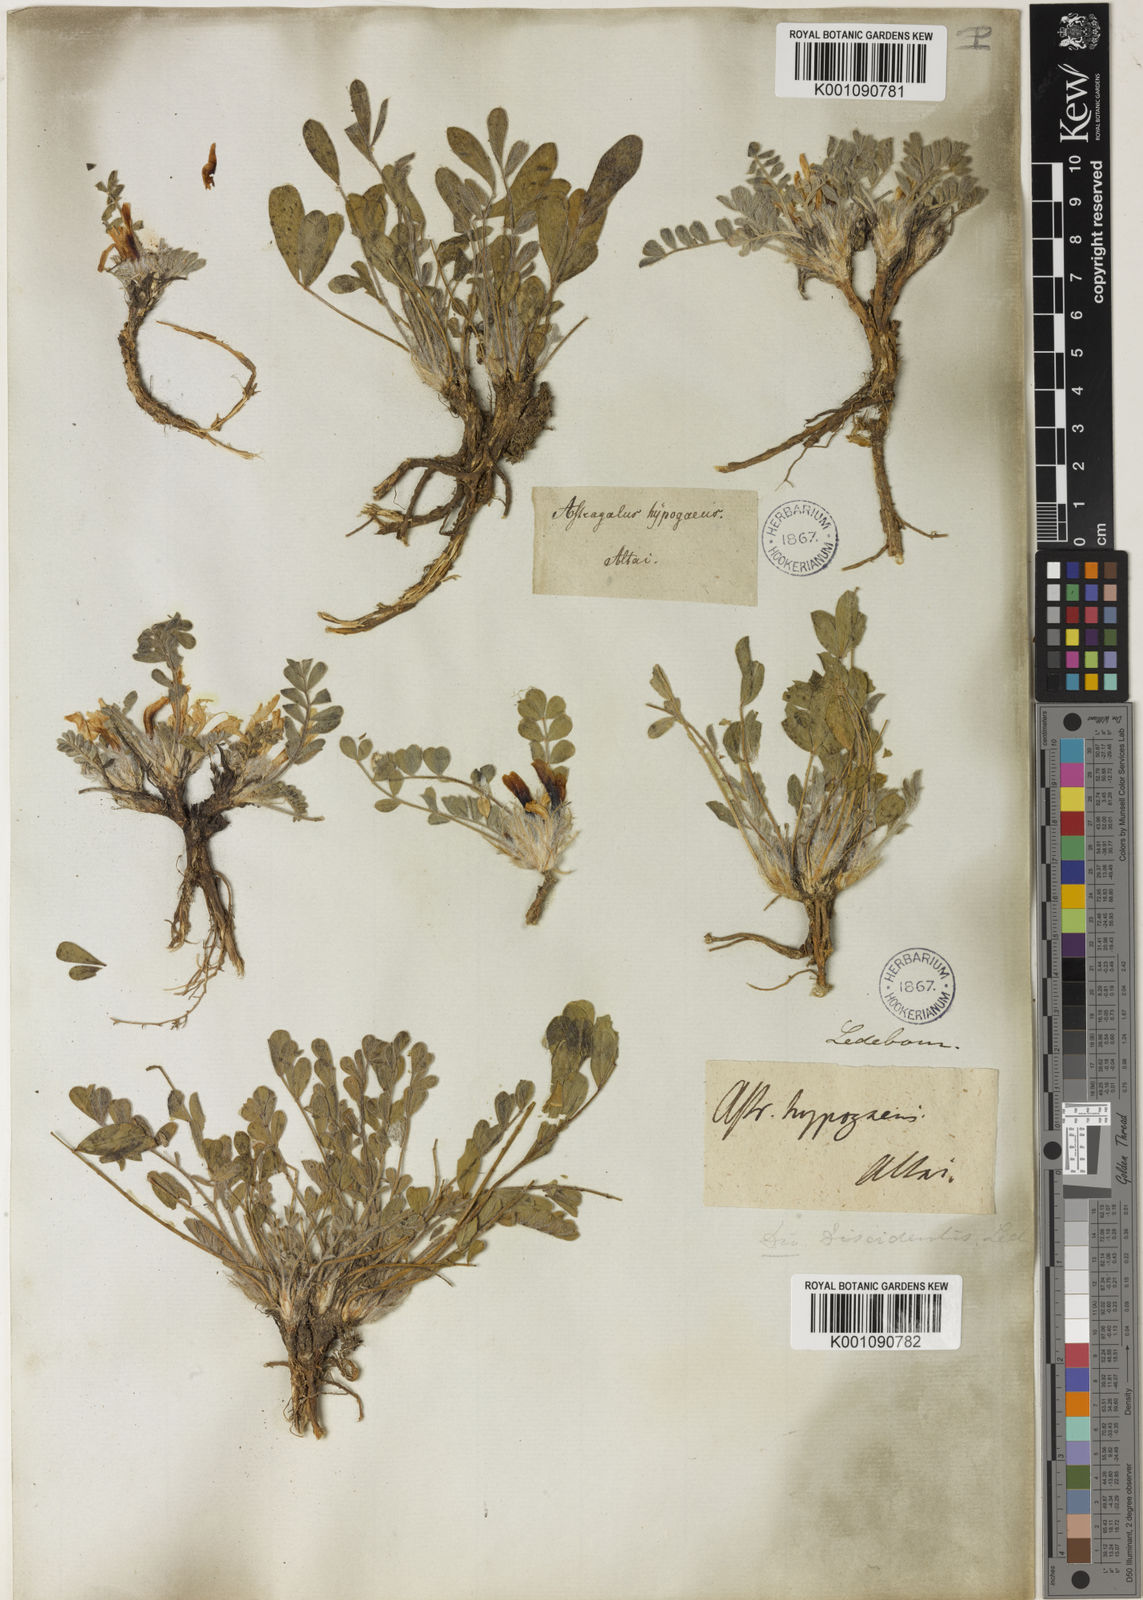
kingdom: Plantae
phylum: Tracheophyta
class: Magnoliopsida
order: Fabales
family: Fabaceae
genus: Astragalus
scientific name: Astragalus
